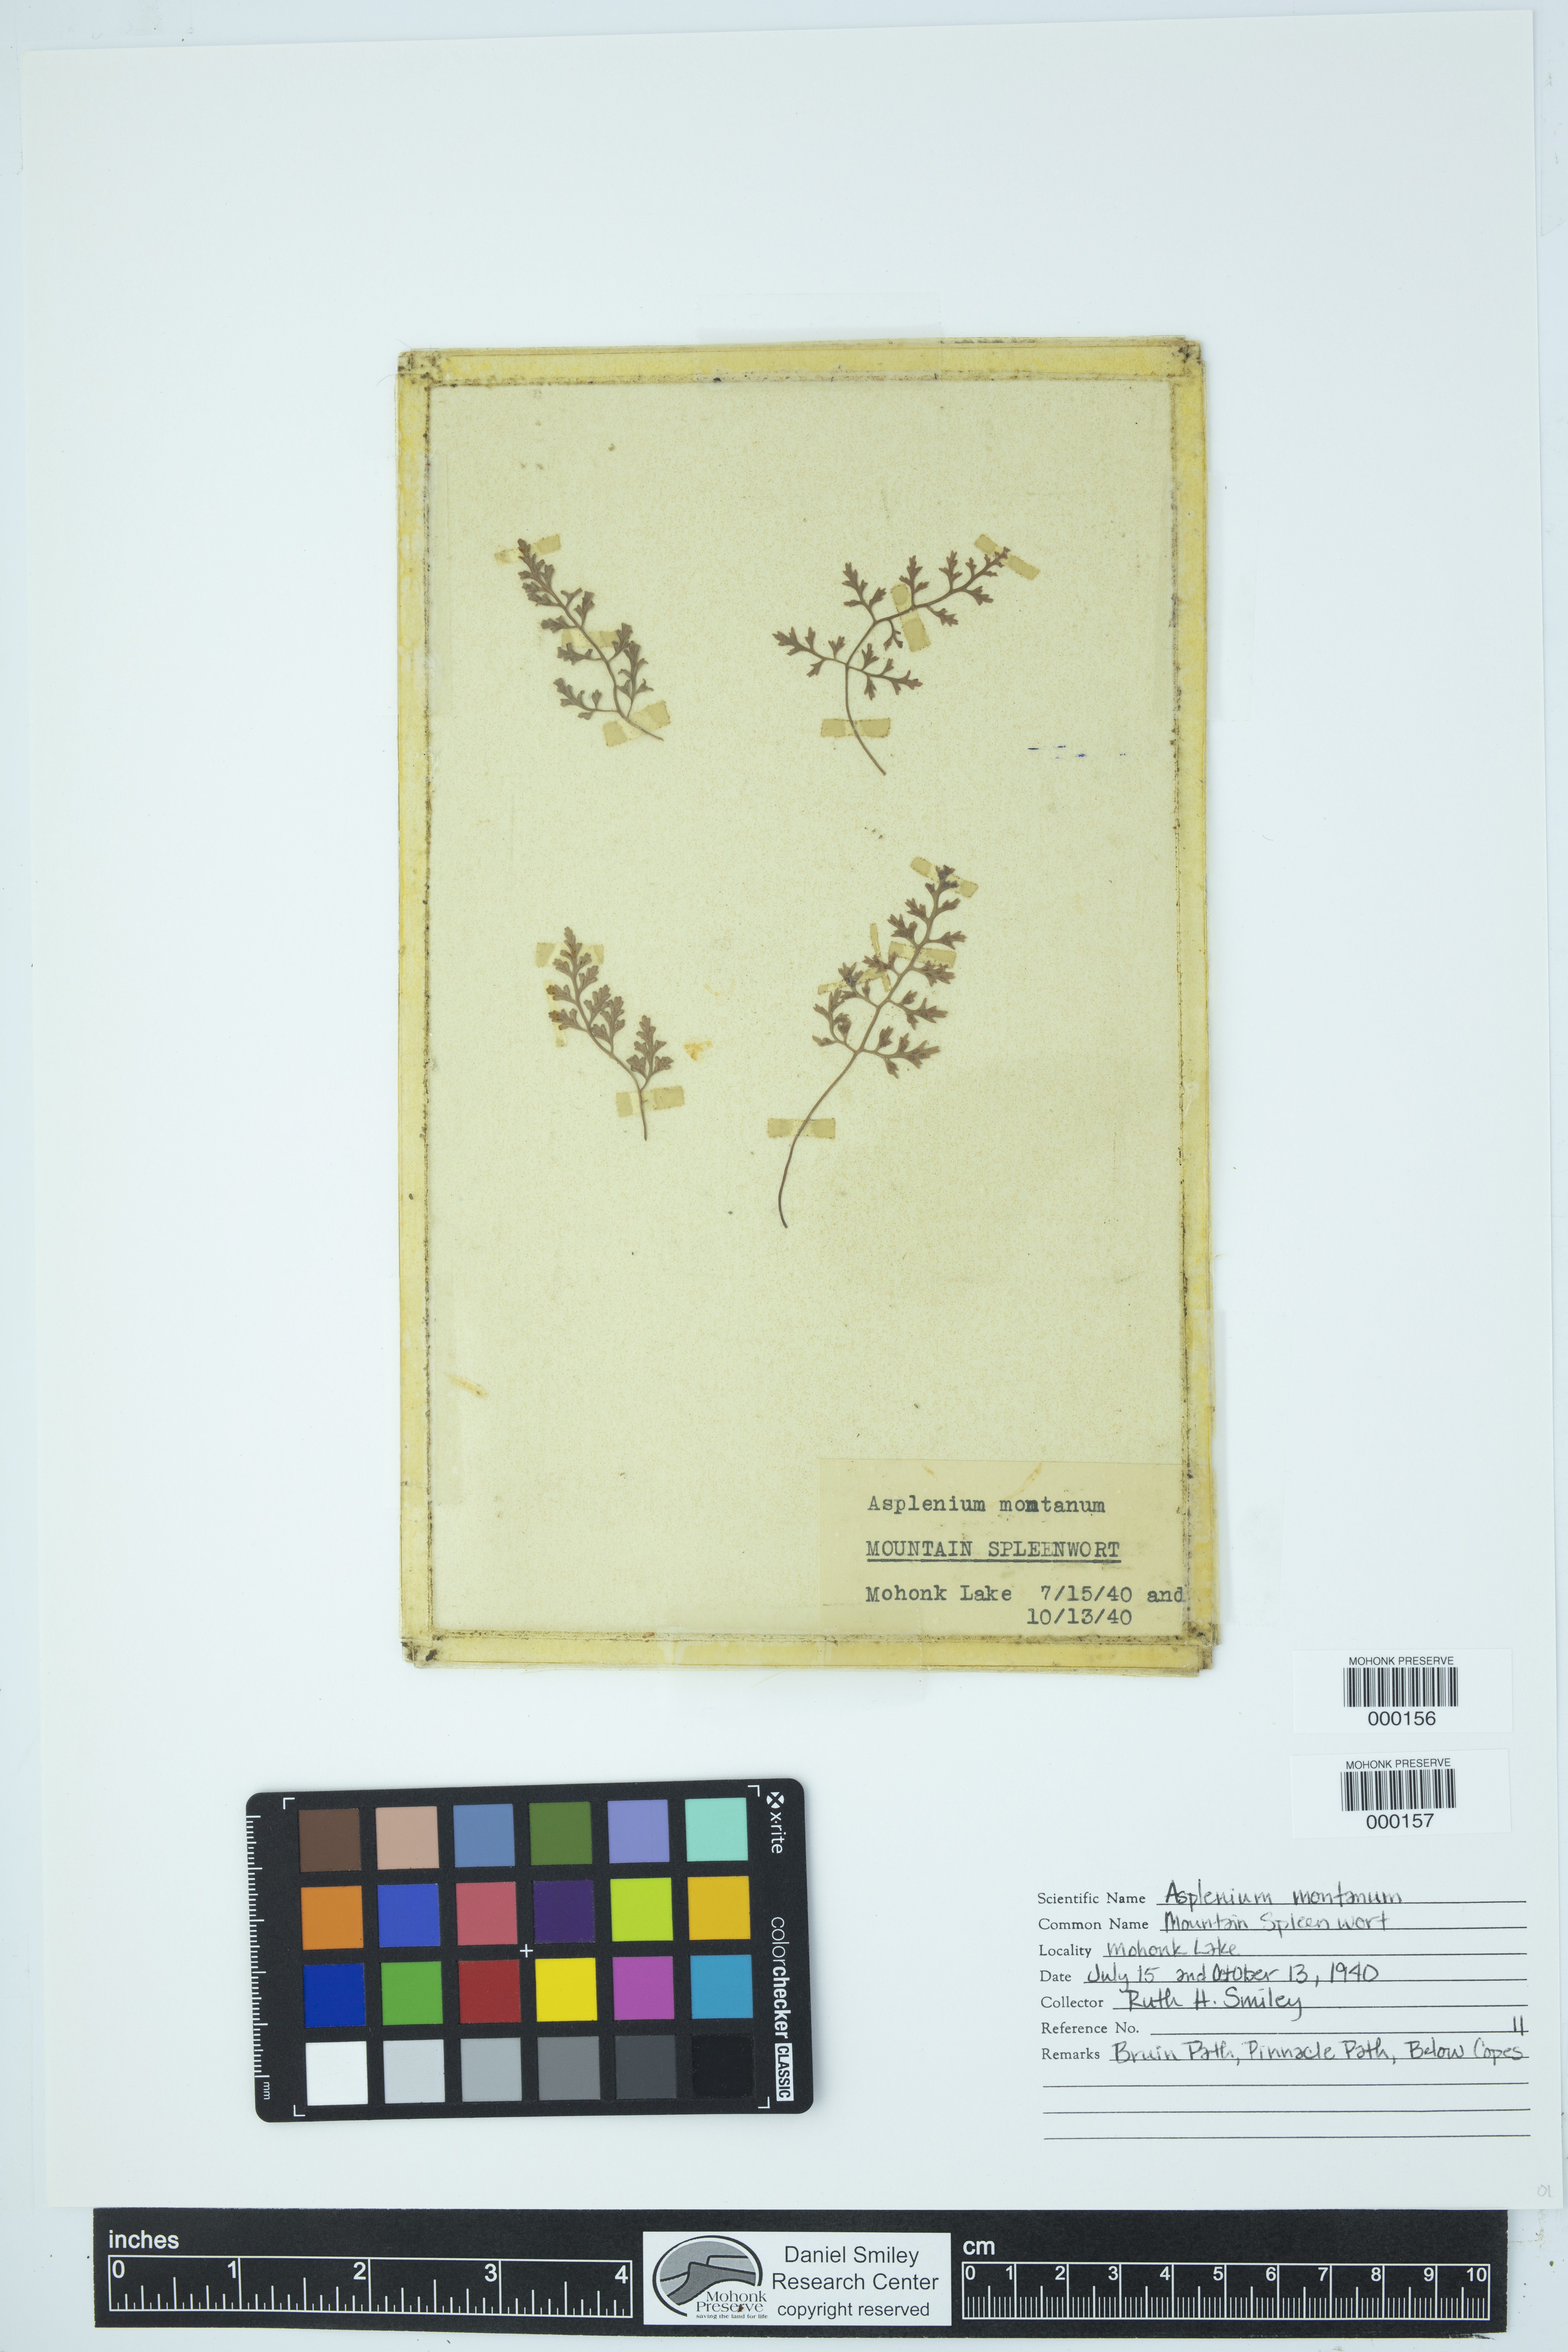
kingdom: Plantae
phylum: Tracheophyta
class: Polypodiopsida
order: Polypodiales
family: Aspleniaceae
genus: Asplenium
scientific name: Asplenium montanum
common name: Mountain spleenwort
